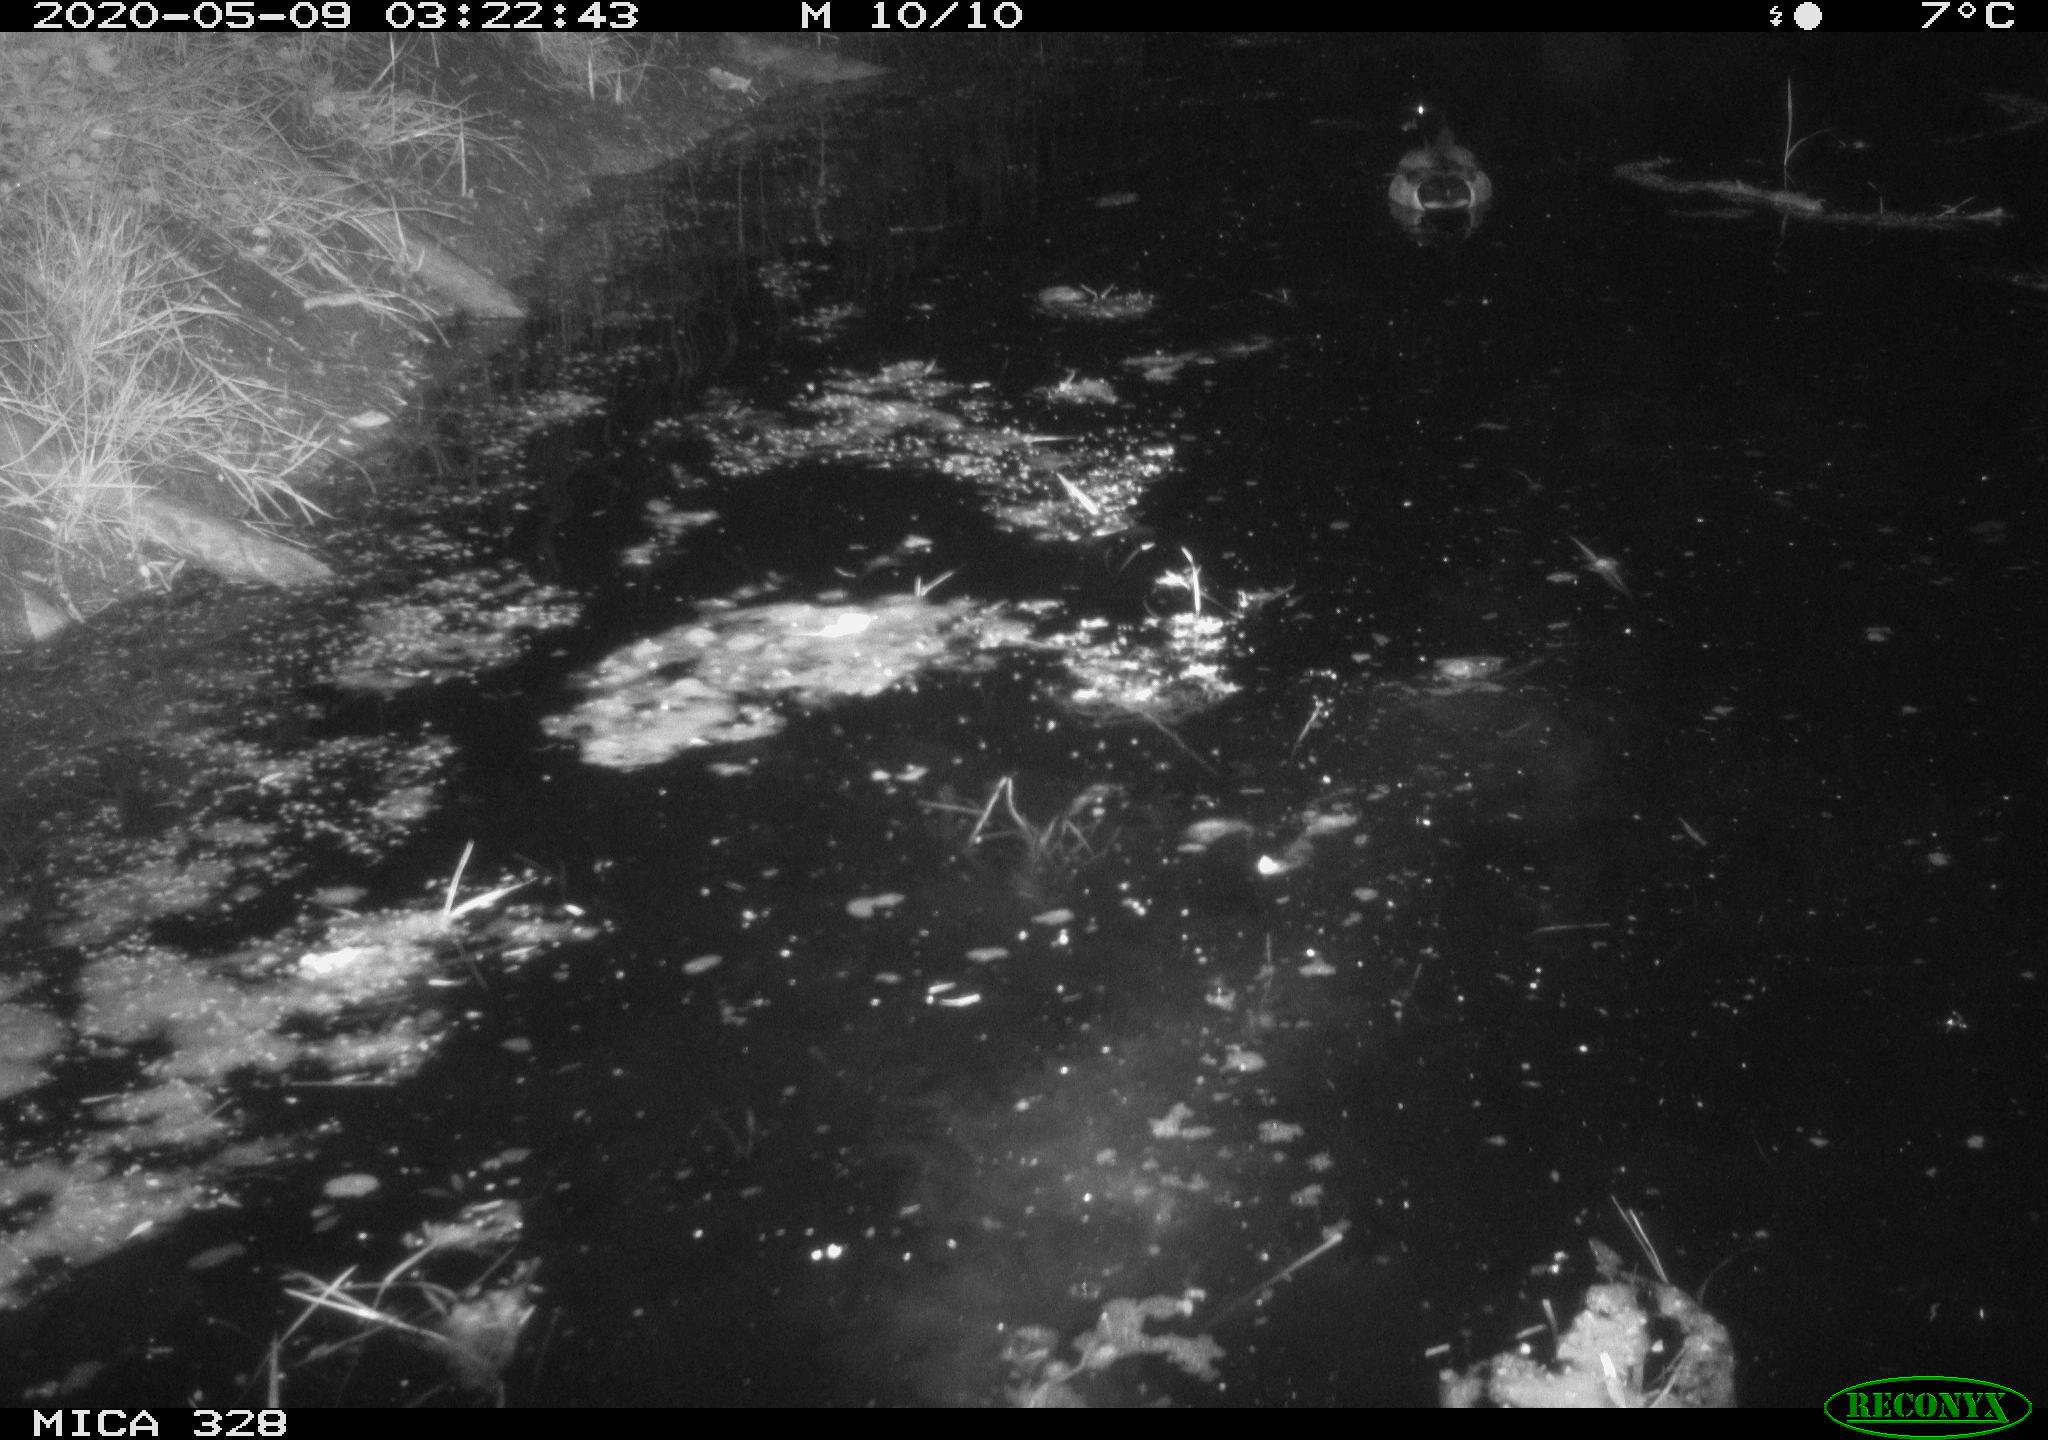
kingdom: Animalia
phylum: Chordata
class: Aves
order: Anseriformes
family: Anatidae
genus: Anas
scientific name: Anas platyrhynchos
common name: Mallard
